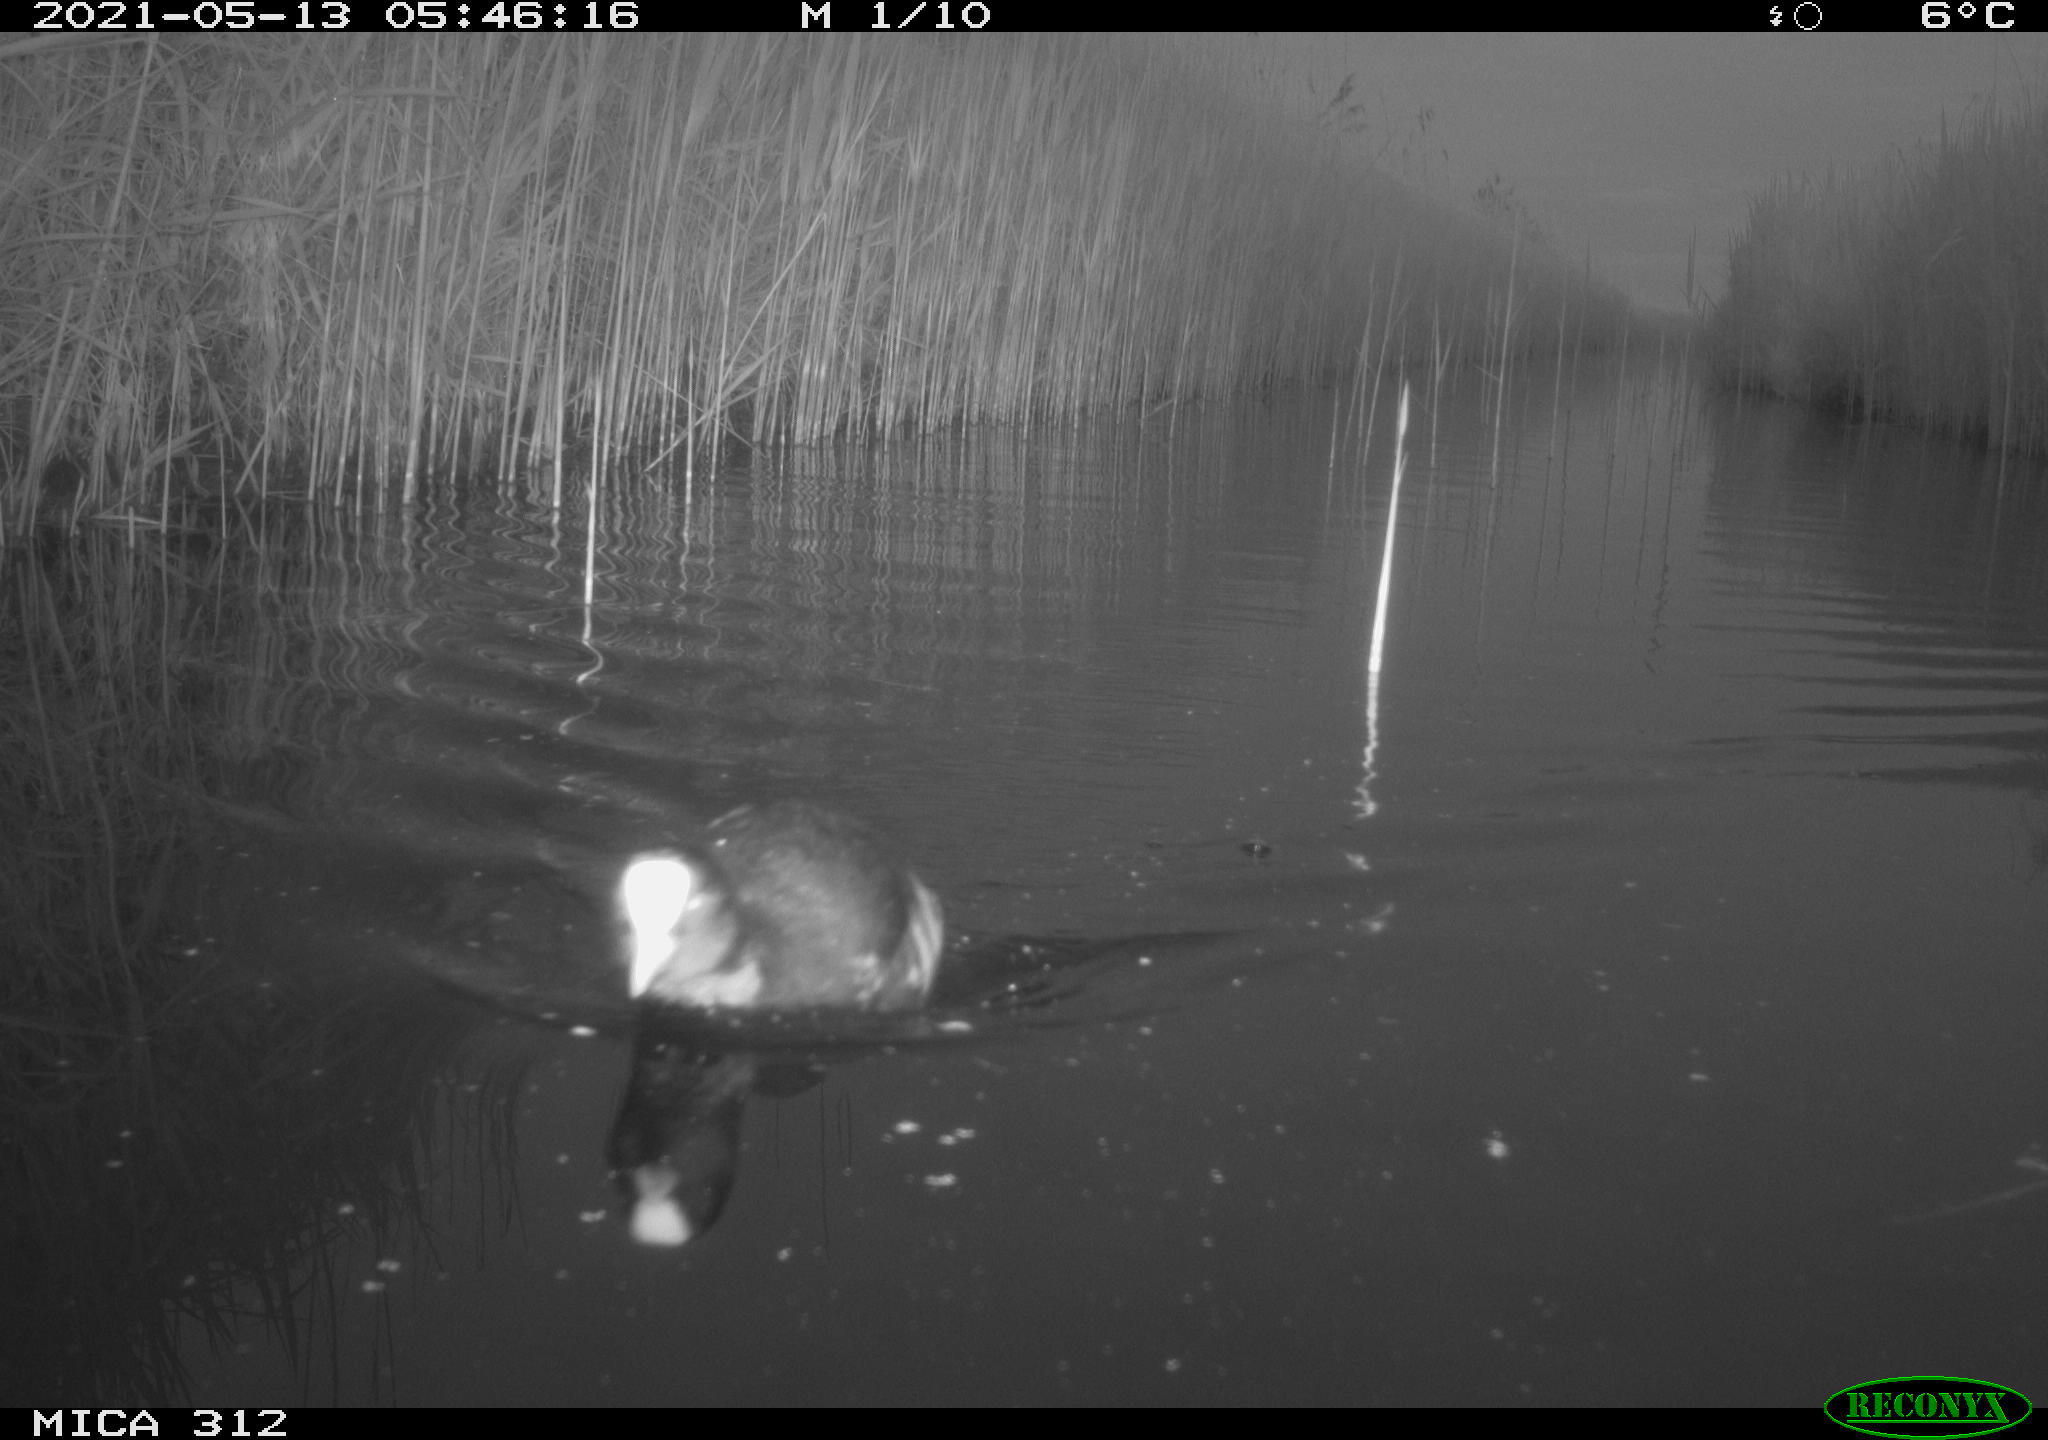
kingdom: Animalia
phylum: Chordata
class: Aves
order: Gruiformes
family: Rallidae
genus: Fulica
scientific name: Fulica atra
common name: Eurasian coot
